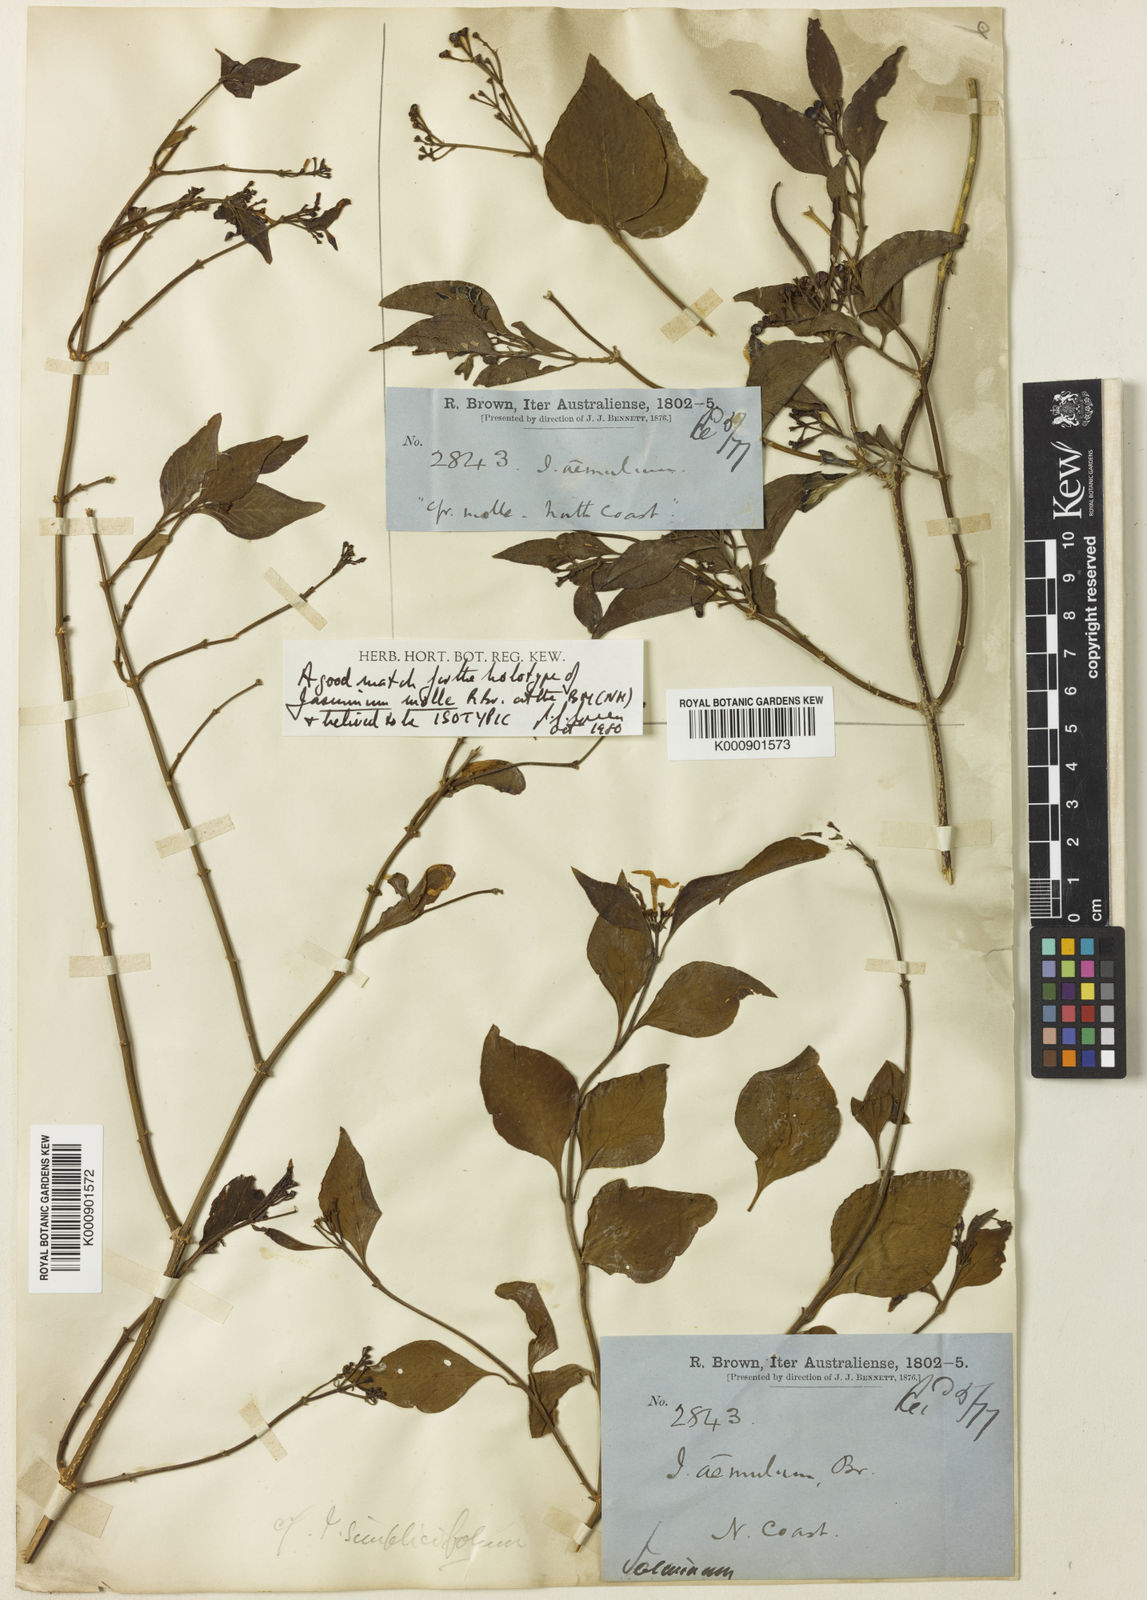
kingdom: Plantae
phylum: Tracheophyta
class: Magnoliopsida
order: Lamiales
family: Oleaceae
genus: Jasminum
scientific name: Jasminum molle
